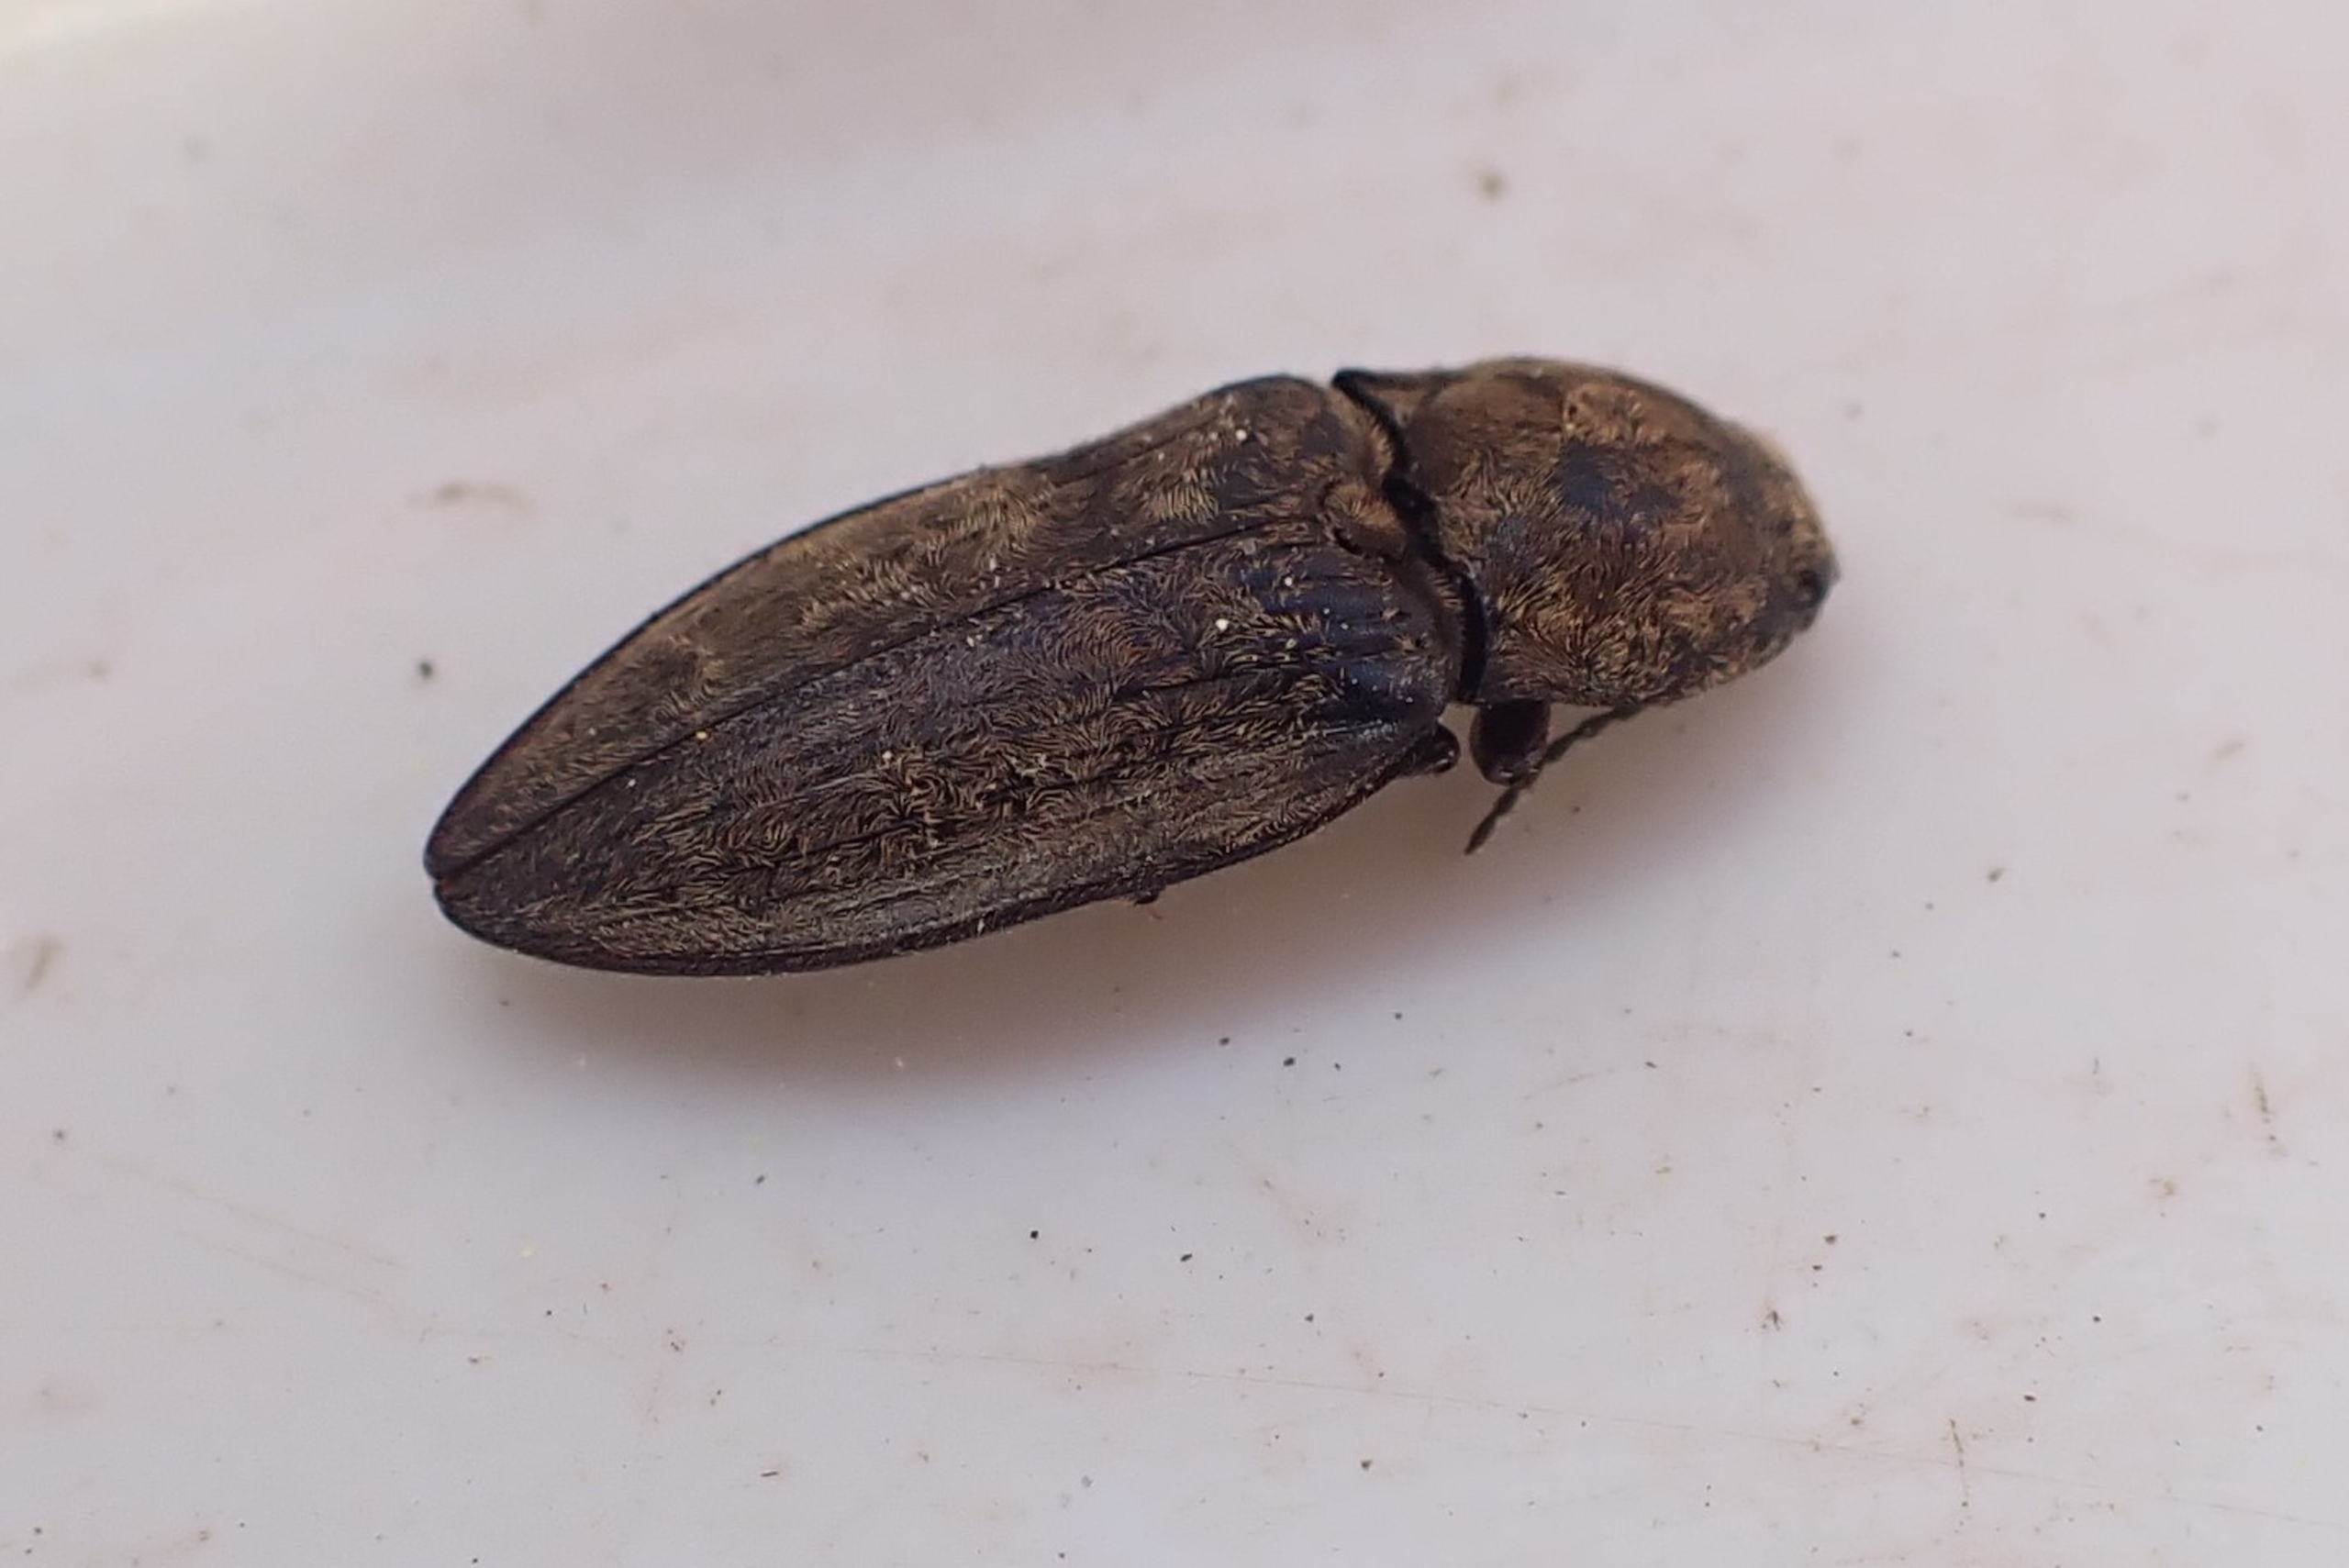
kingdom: Animalia
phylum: Arthropoda
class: Insecta
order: Coleoptera
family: Elateridae
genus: Prosternon
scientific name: Prosternon tessellatum
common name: Silkeglinsende jordsmælder
